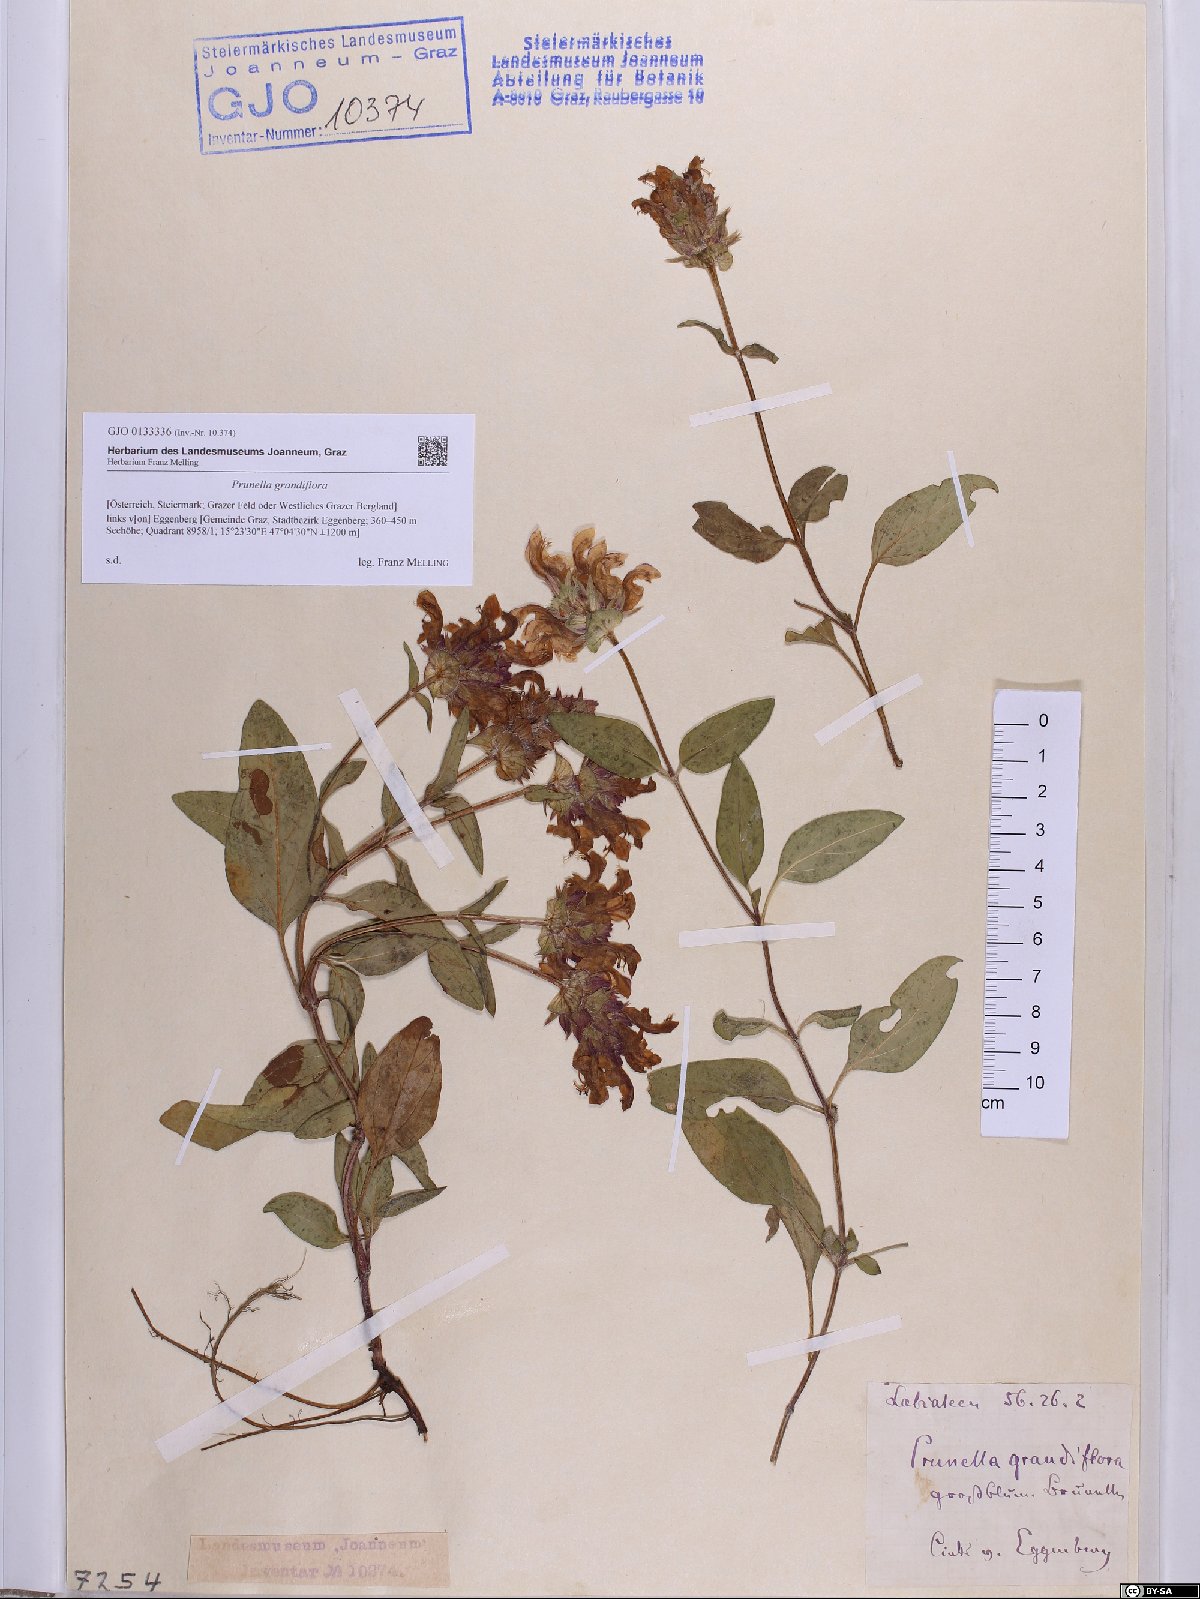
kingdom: Plantae
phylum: Tracheophyta
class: Magnoliopsida
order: Lamiales
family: Lamiaceae
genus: Prunella
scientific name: Prunella grandiflora
